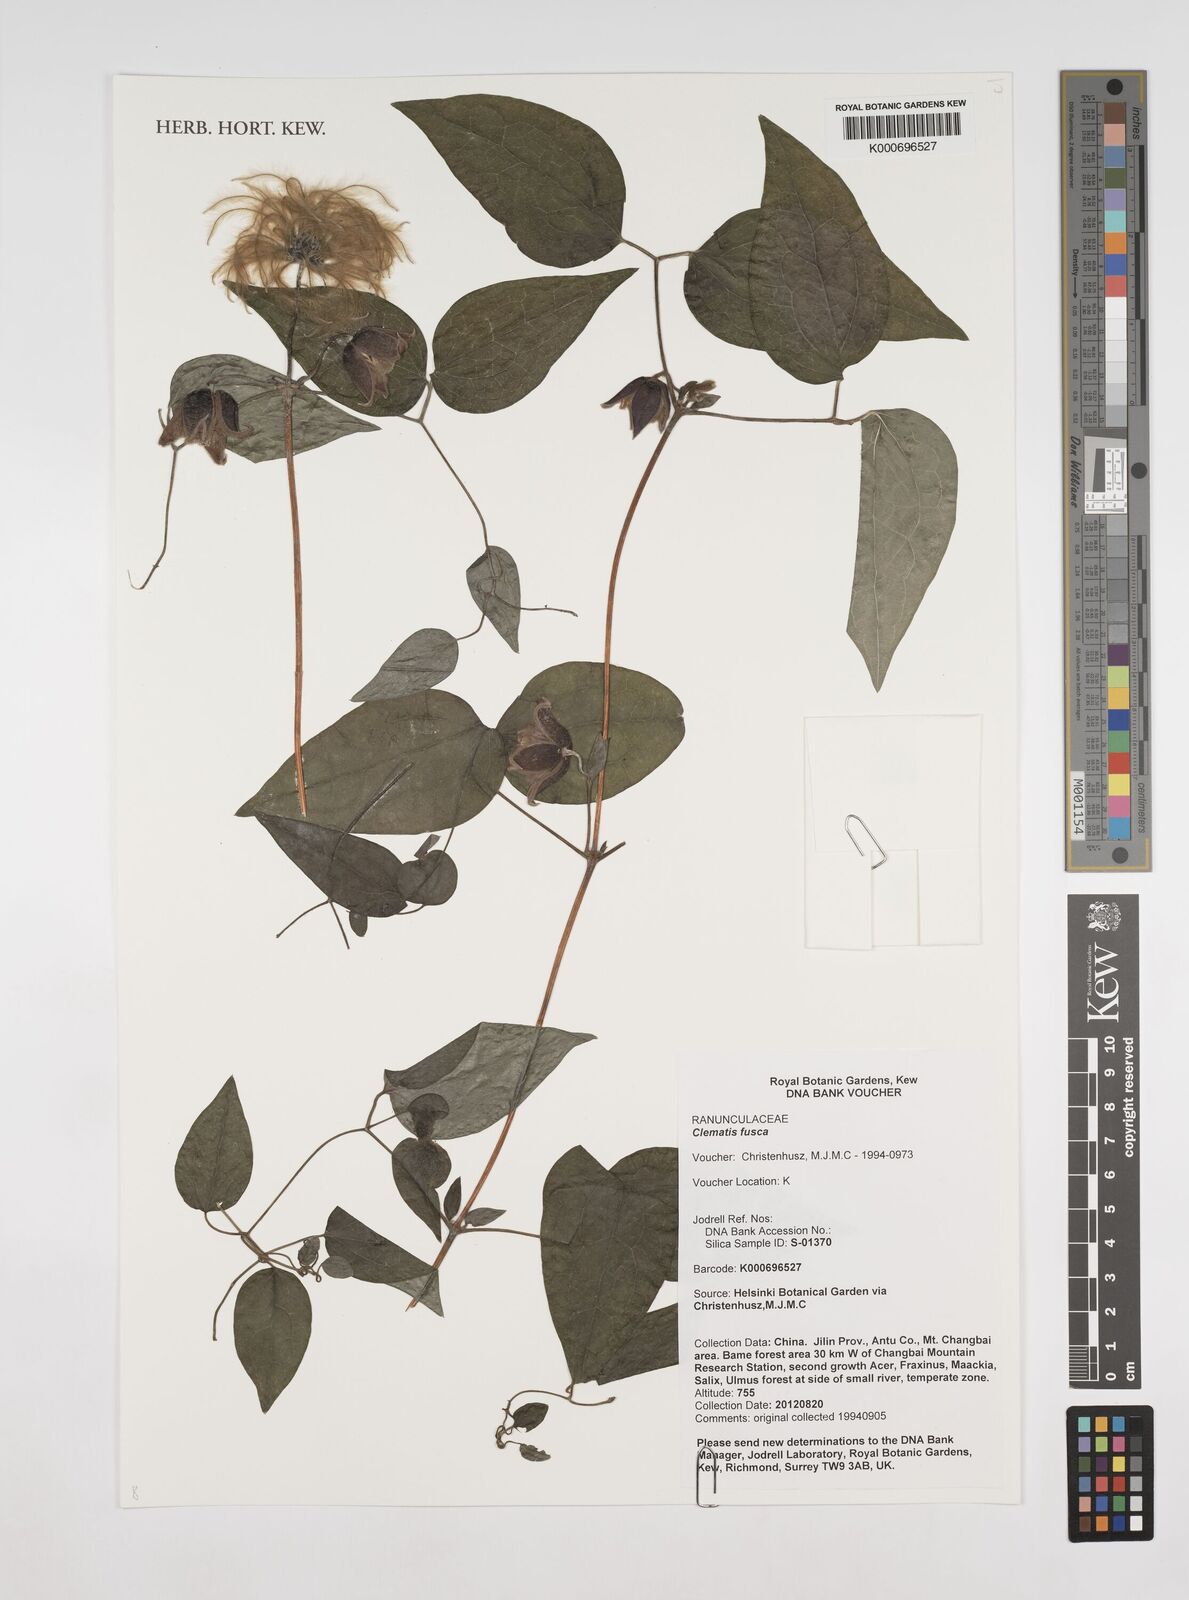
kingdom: Plantae
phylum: Tracheophyta
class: Magnoliopsida
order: Ranunculales
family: Ranunculaceae
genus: Clematis
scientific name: Clematis fusca
